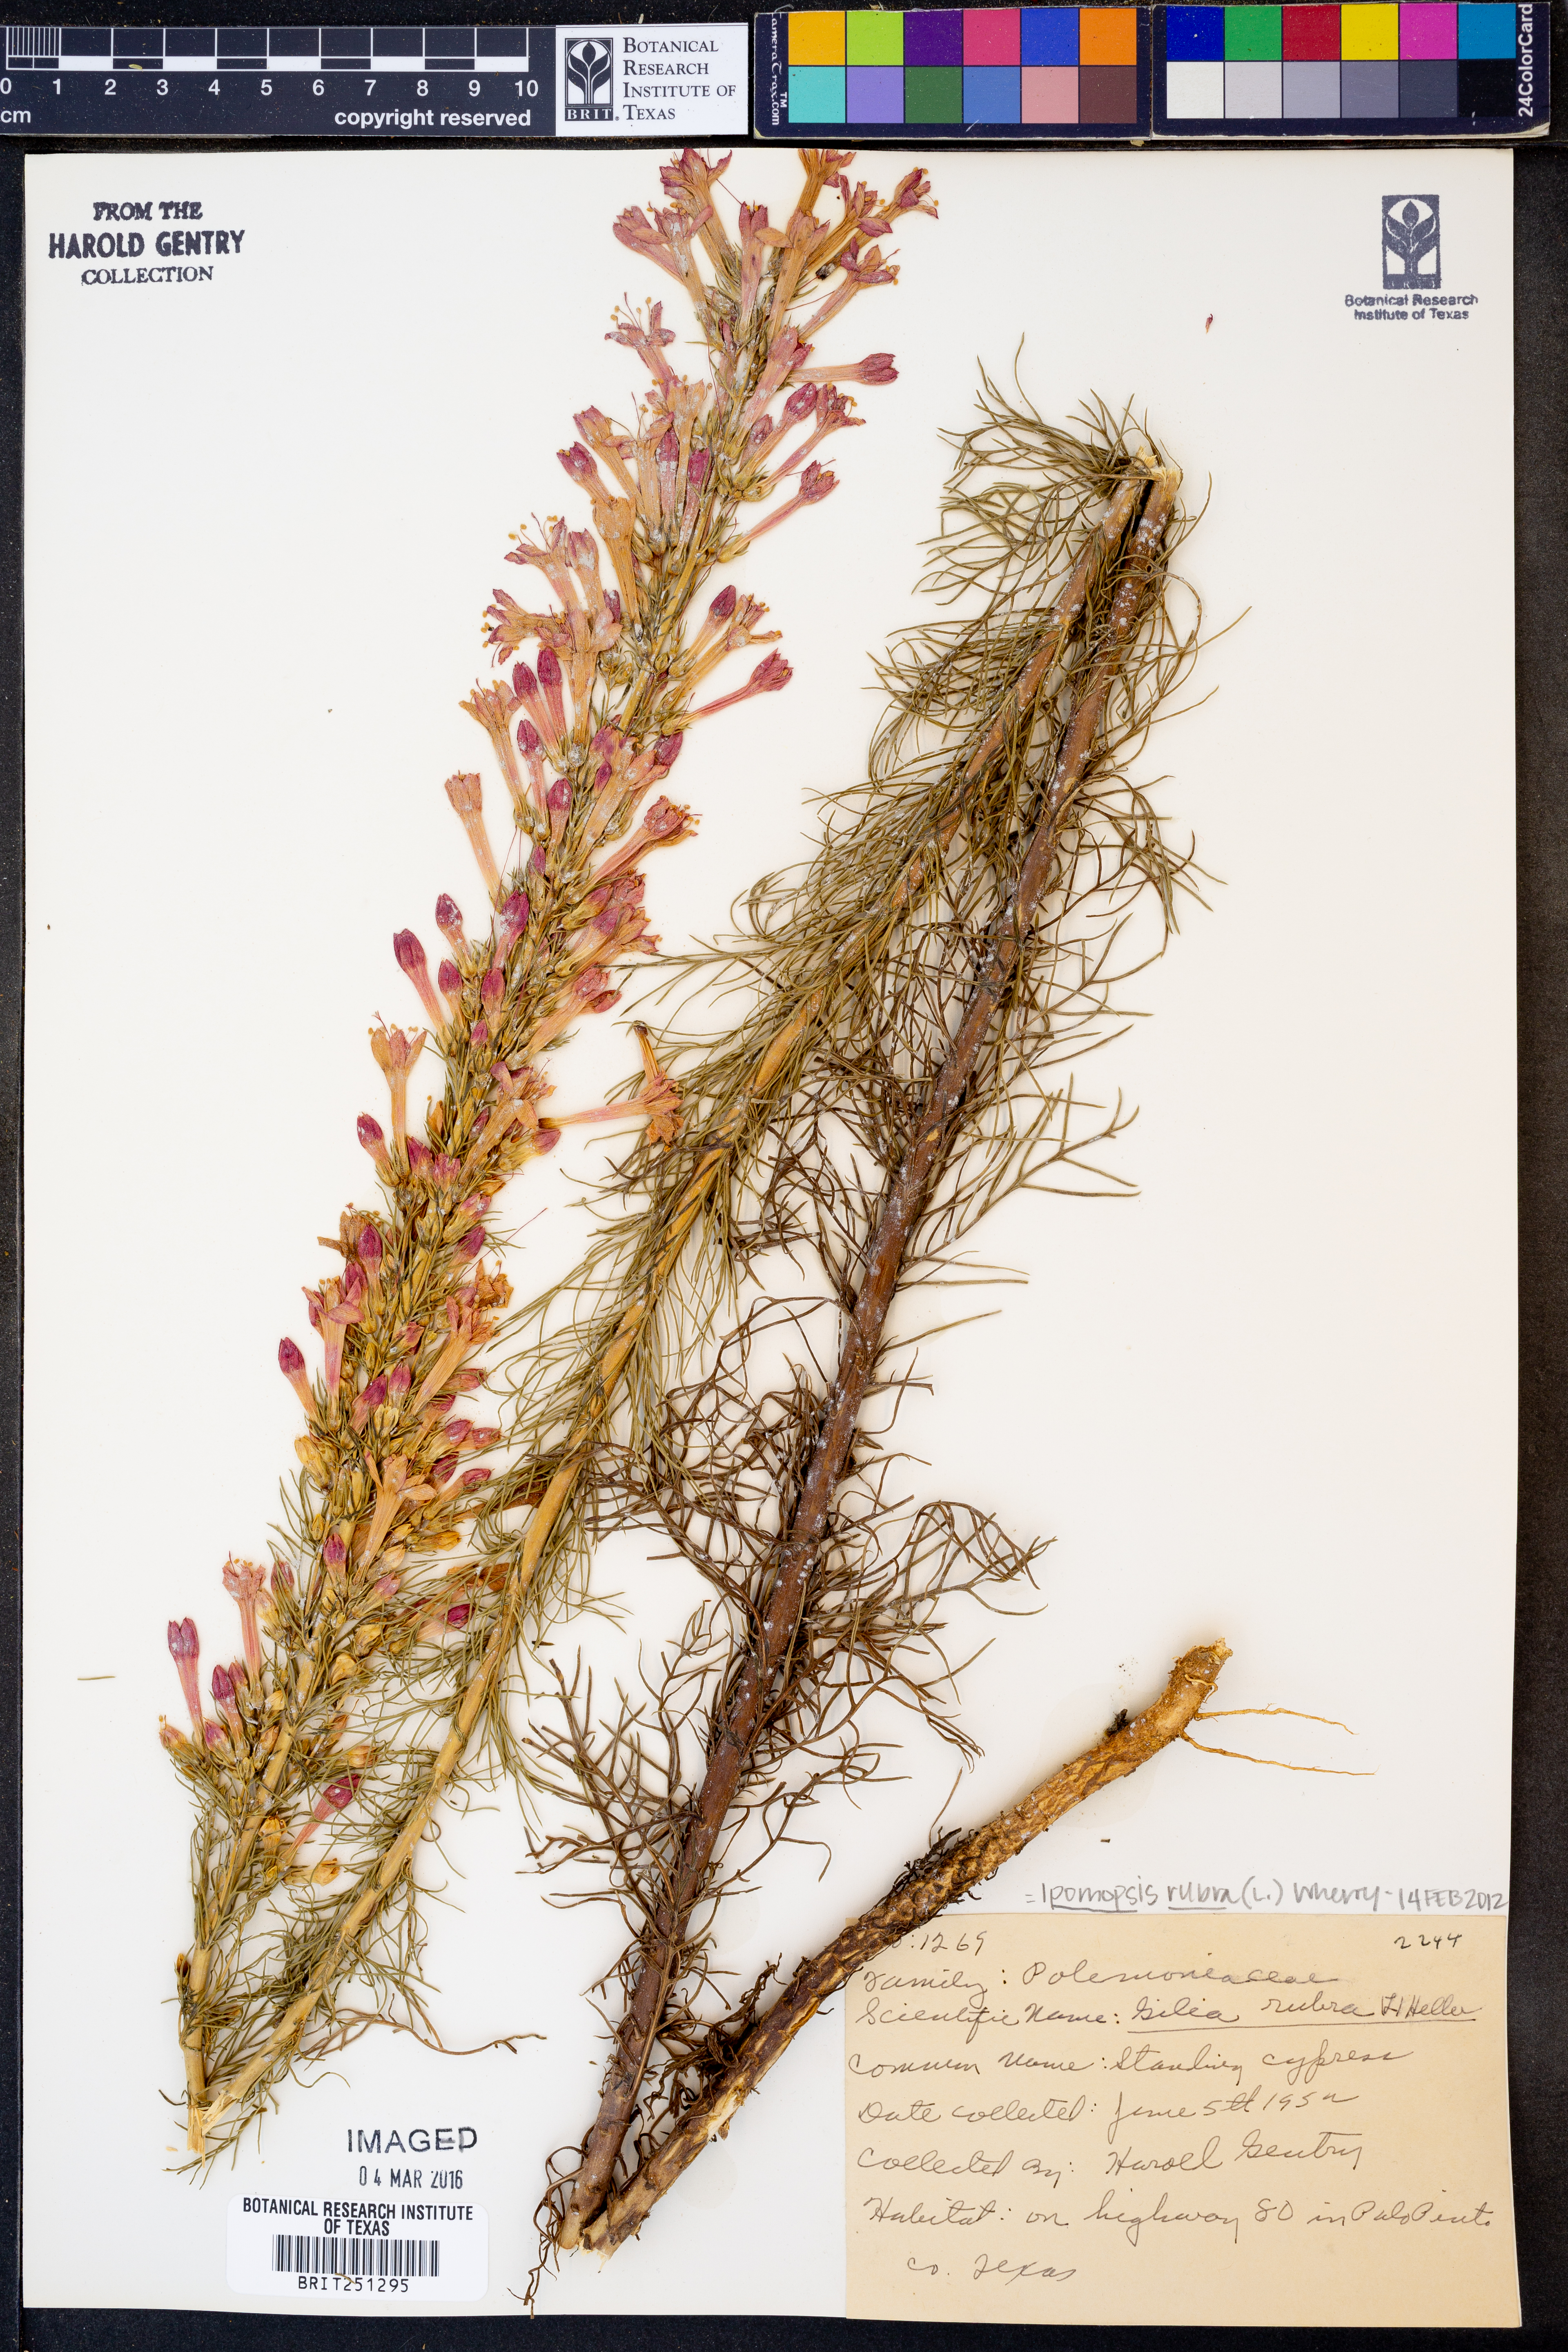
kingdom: Plantae
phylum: Tracheophyta
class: Magnoliopsida
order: Ericales
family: Polemoniaceae
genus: Ipomopsis
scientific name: Ipomopsis rubra
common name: Skyrocket
